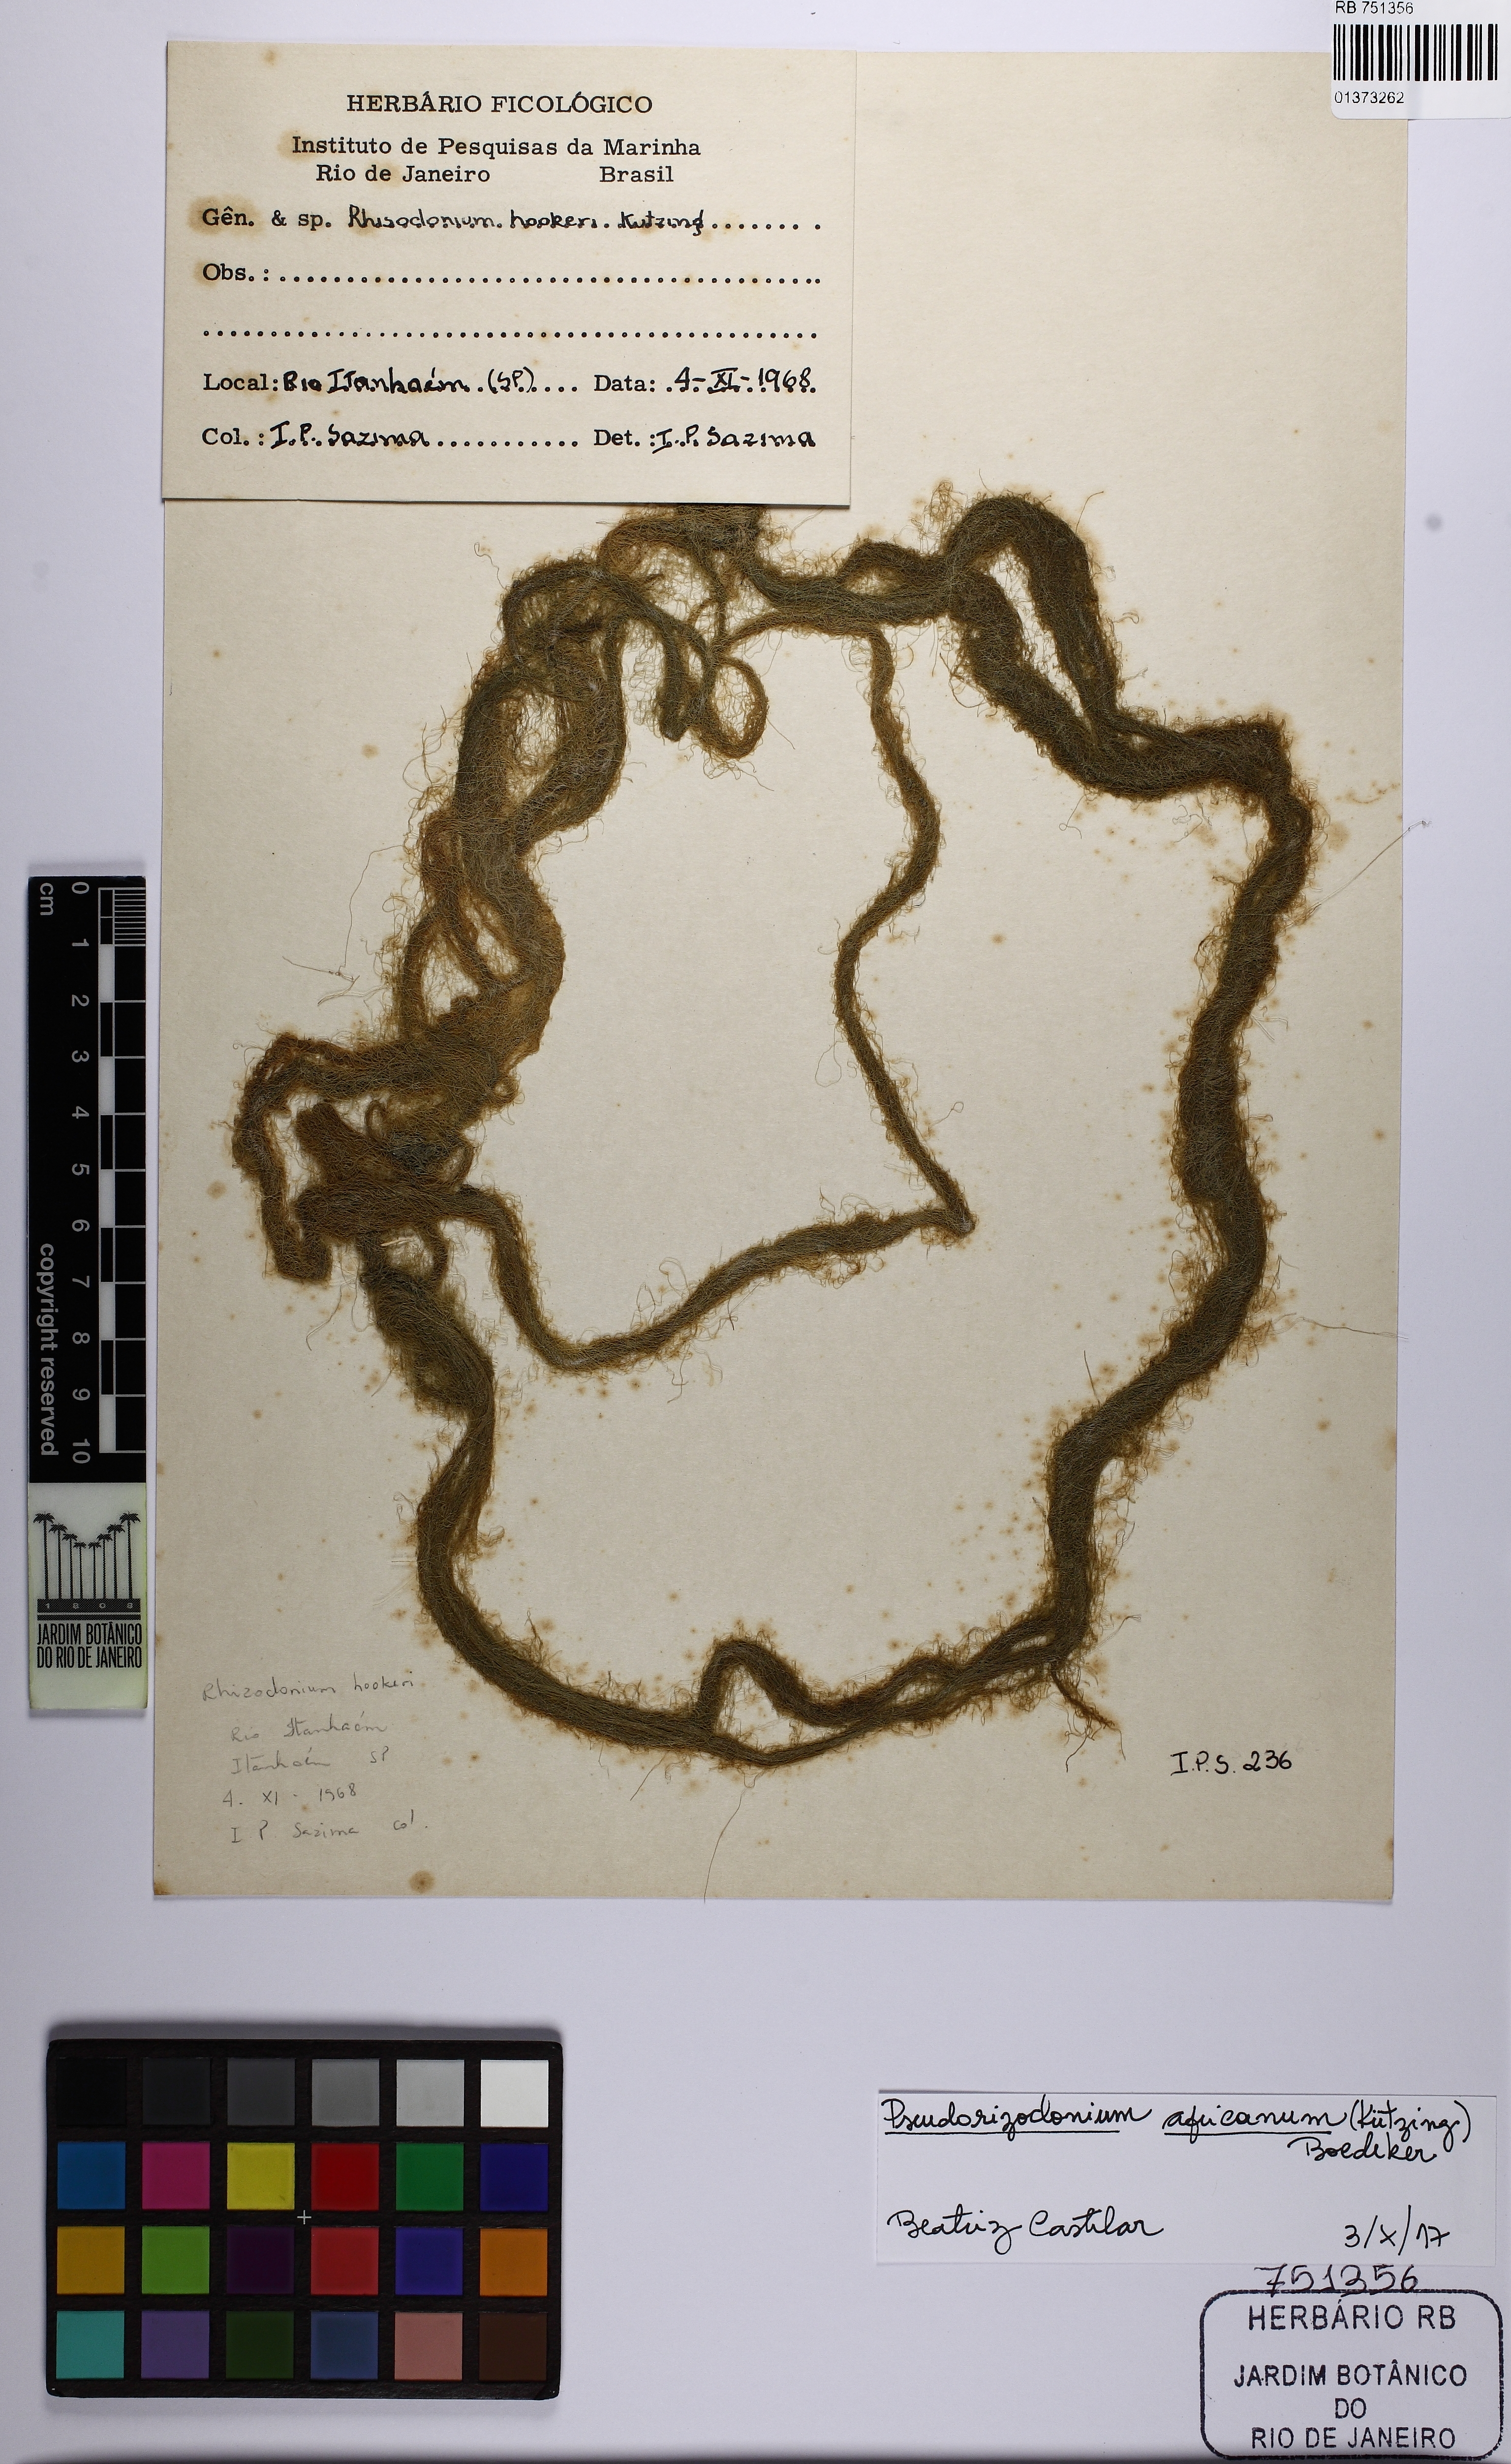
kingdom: Plantae
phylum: Chlorophyta
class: Ulvophyceae
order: Cladophorales
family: Cladophoraceae
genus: Pseudorhizoclonium
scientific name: Pseudorhizoclonium africanum
